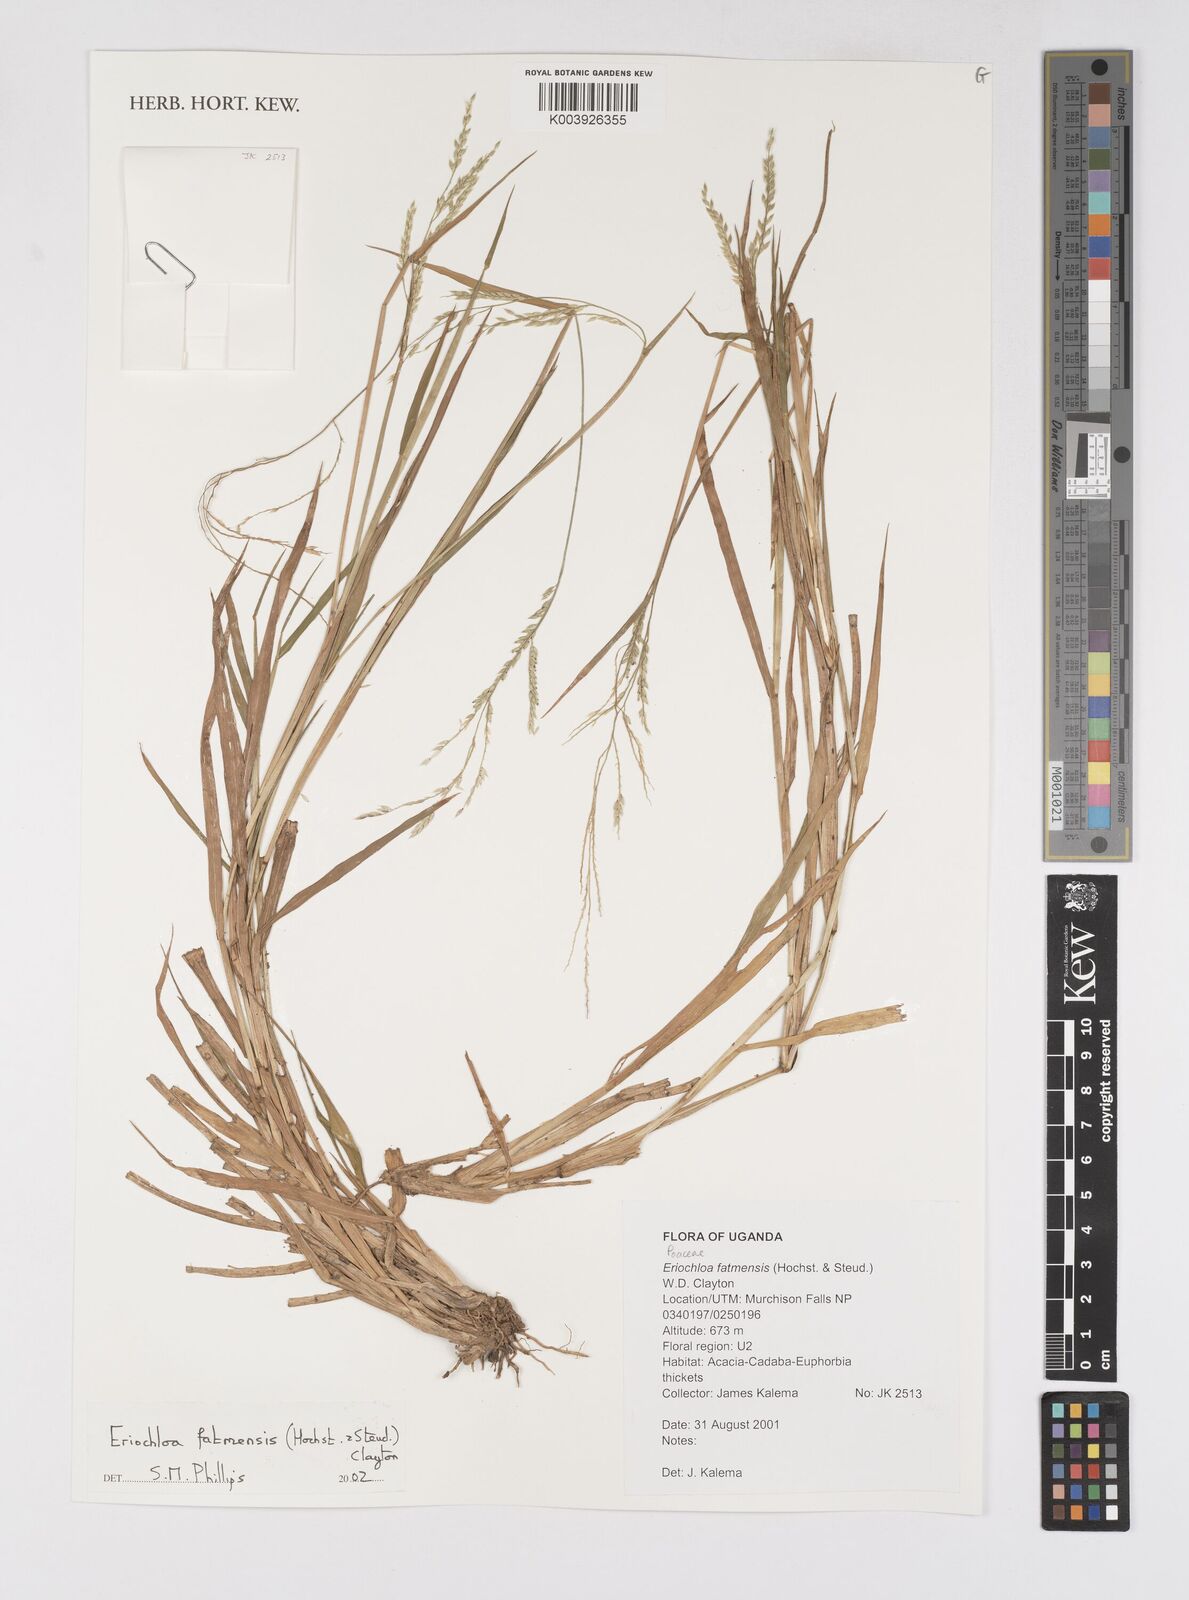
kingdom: Plantae
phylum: Tracheophyta
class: Liliopsida
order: Poales
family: Poaceae
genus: Eriochloa
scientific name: Eriochloa barbatus
